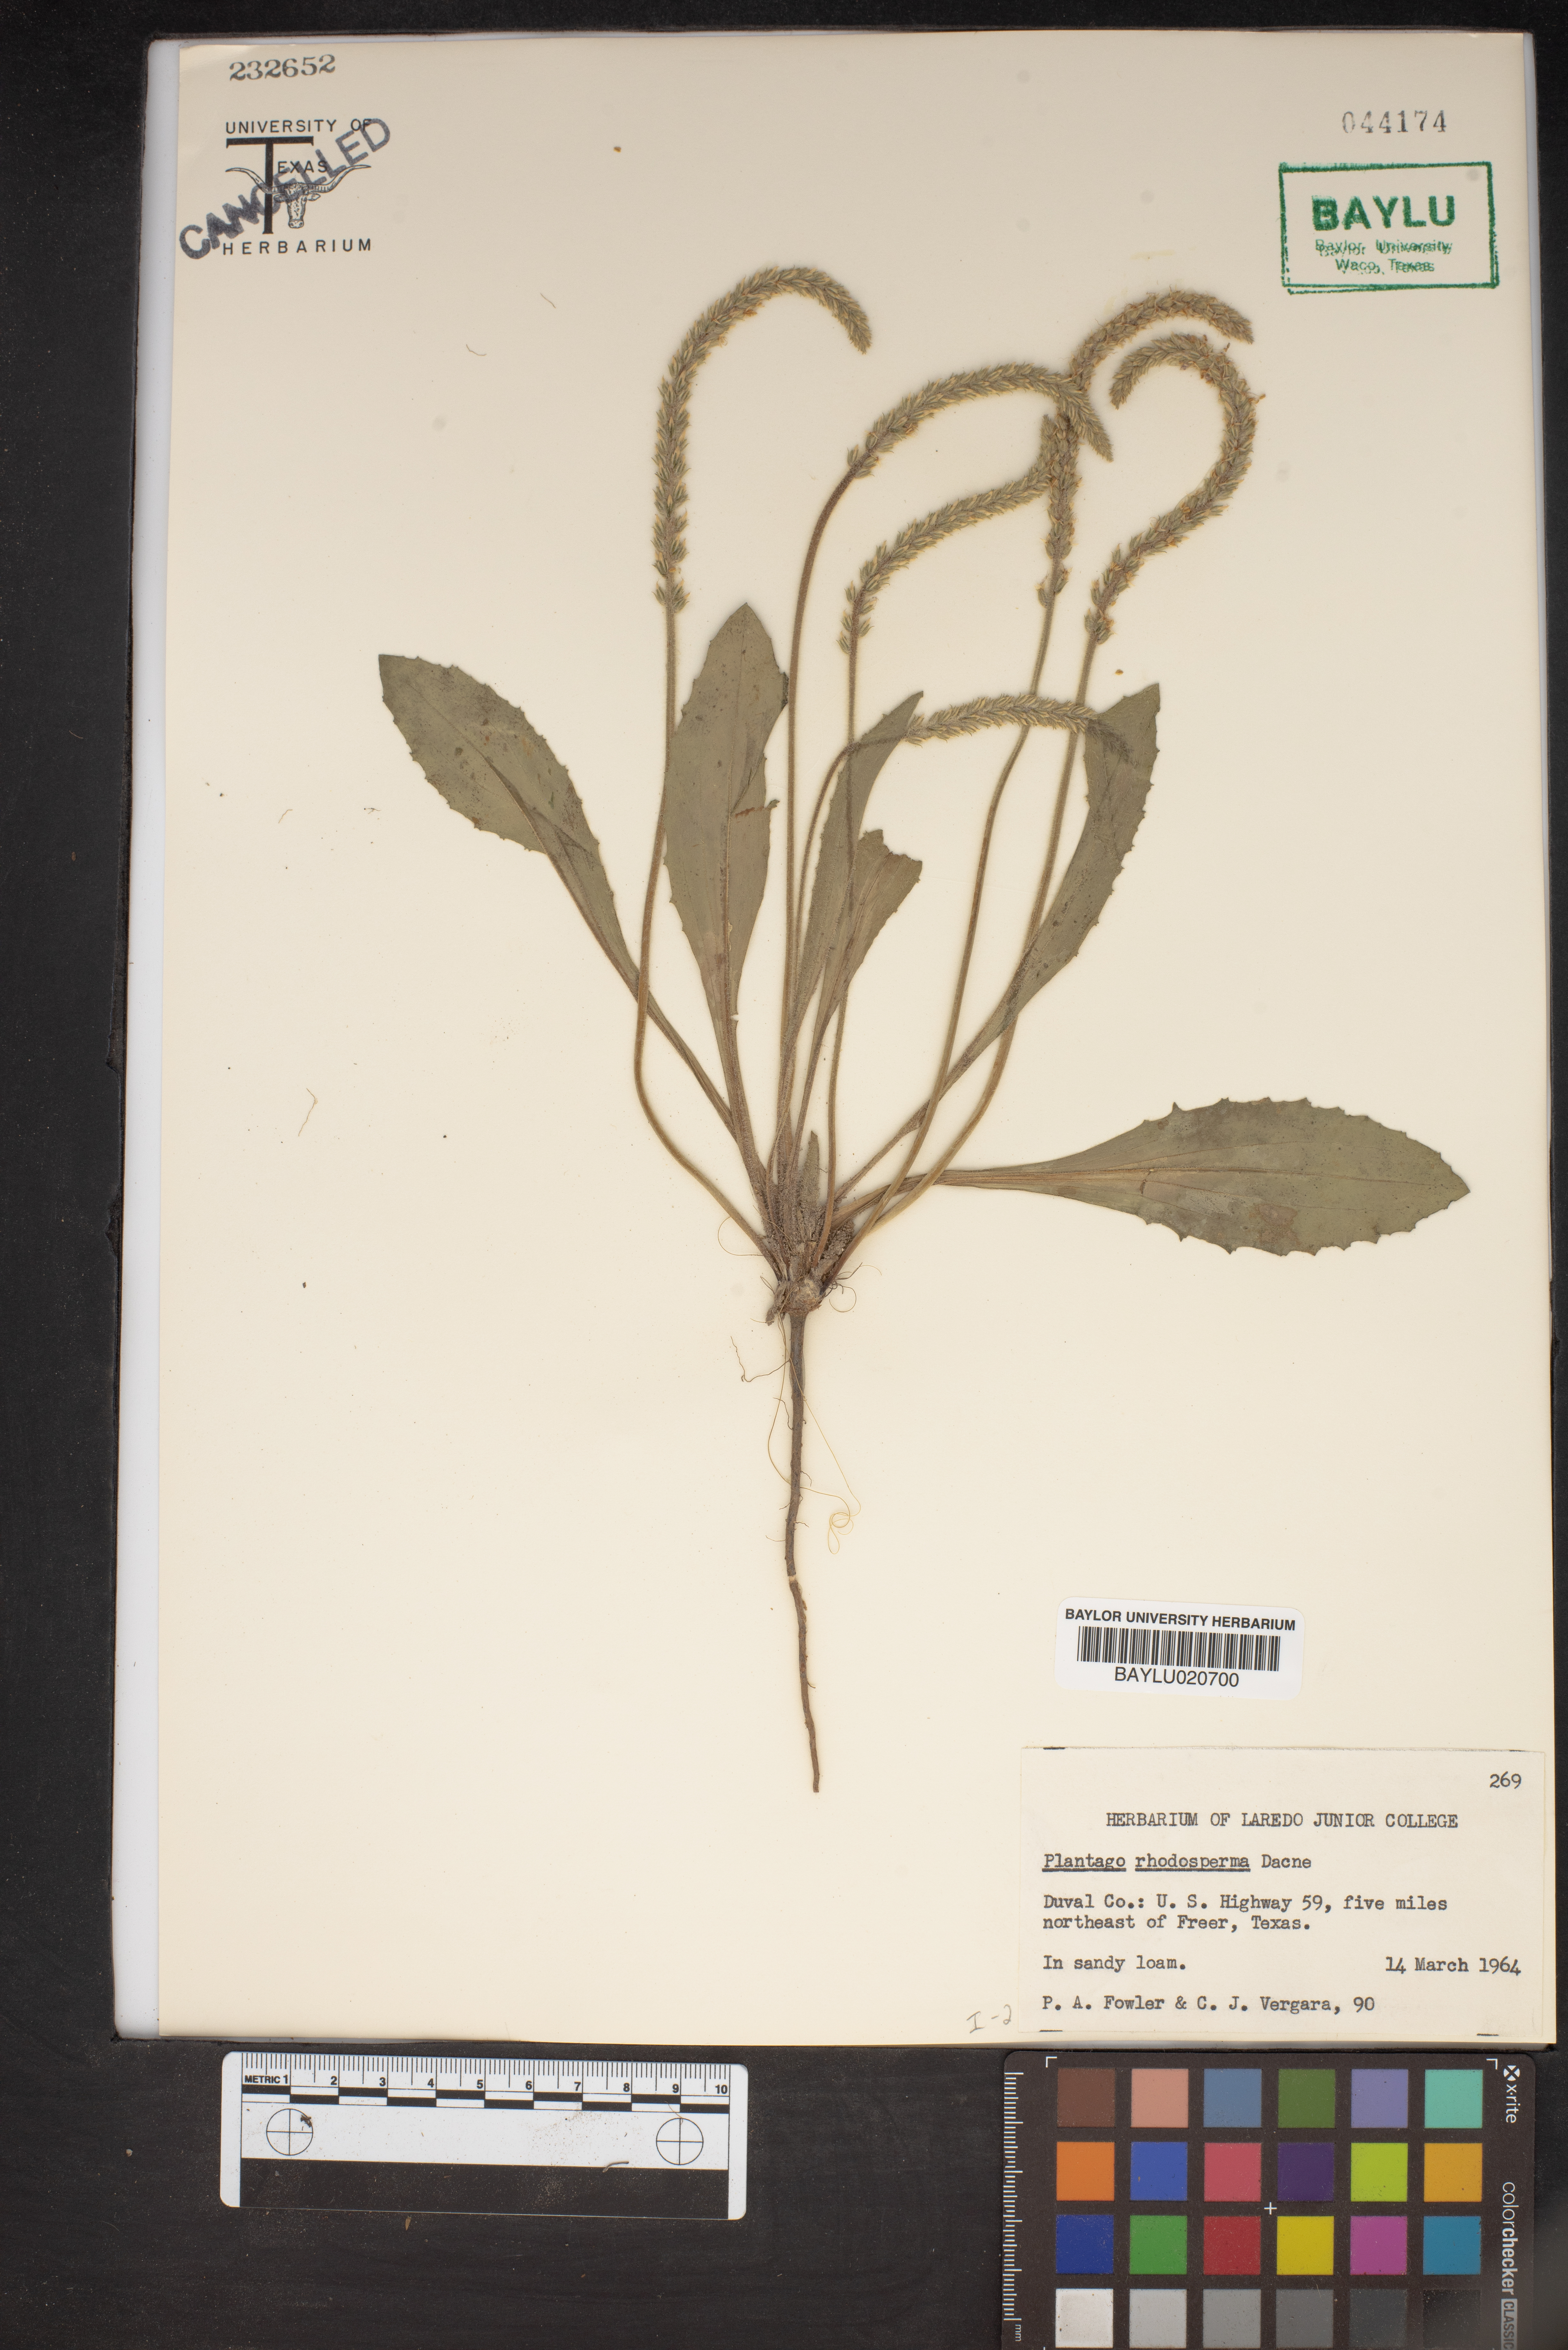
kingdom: Plantae
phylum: Tracheophyta
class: Magnoliopsida
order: Lamiales
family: Plantaginaceae
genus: Plantago
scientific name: Plantago rhodosperma
